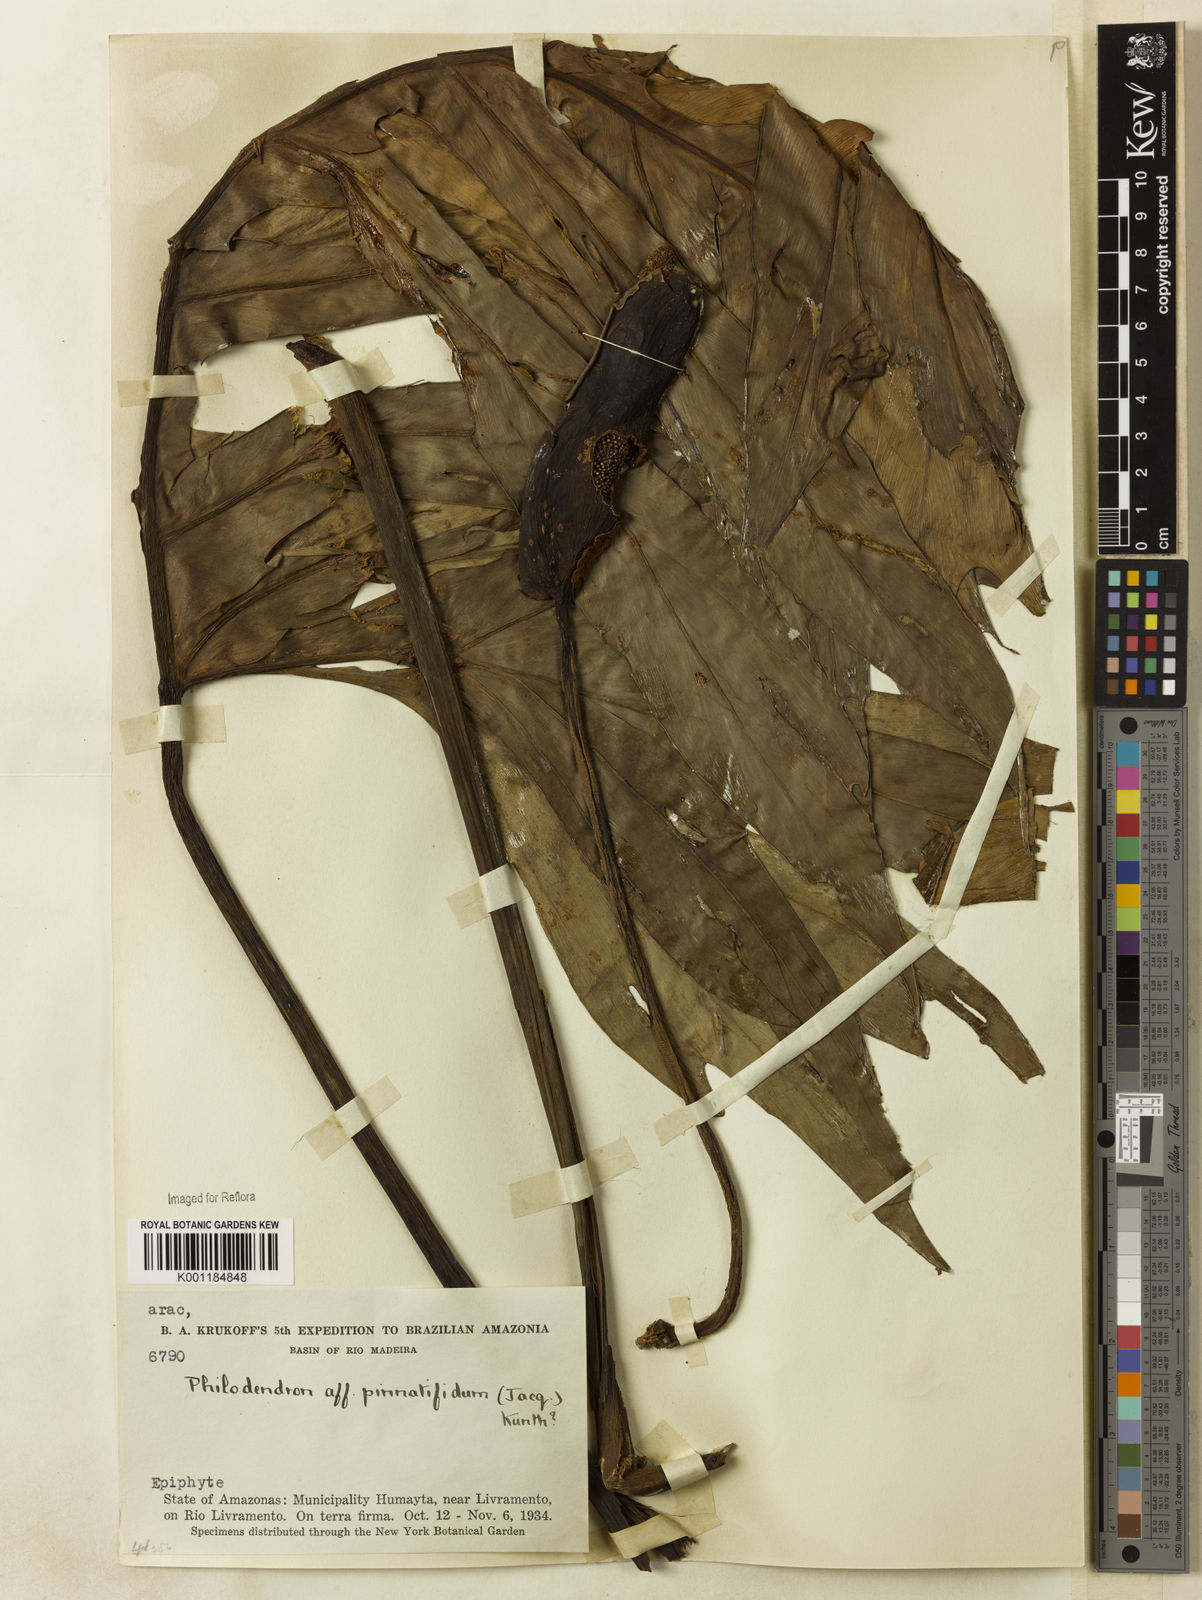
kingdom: Plantae
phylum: Tracheophyta
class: Liliopsida
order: Alismatales
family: Araceae
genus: Philodendron
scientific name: Philodendron
